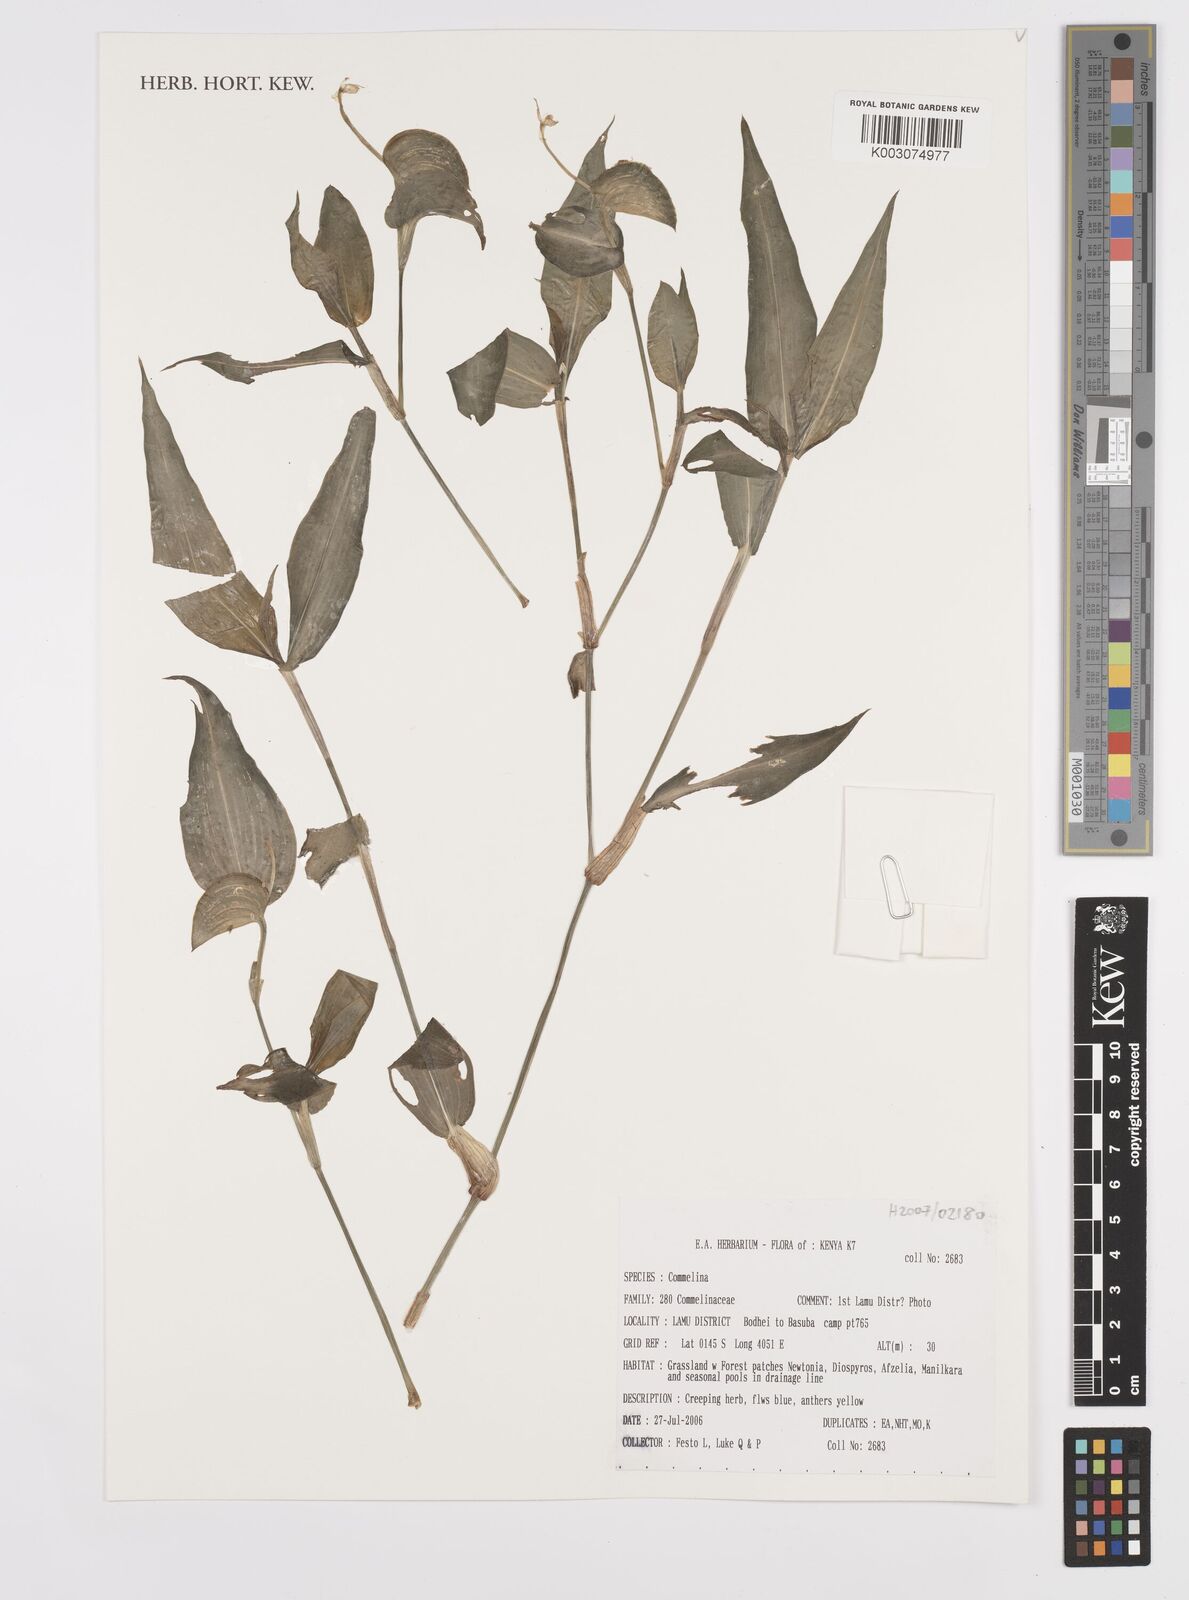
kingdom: Plantae
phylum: Tracheophyta
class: Liliopsida
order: Commelinales
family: Commelinaceae
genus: Commelina
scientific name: Commelina
